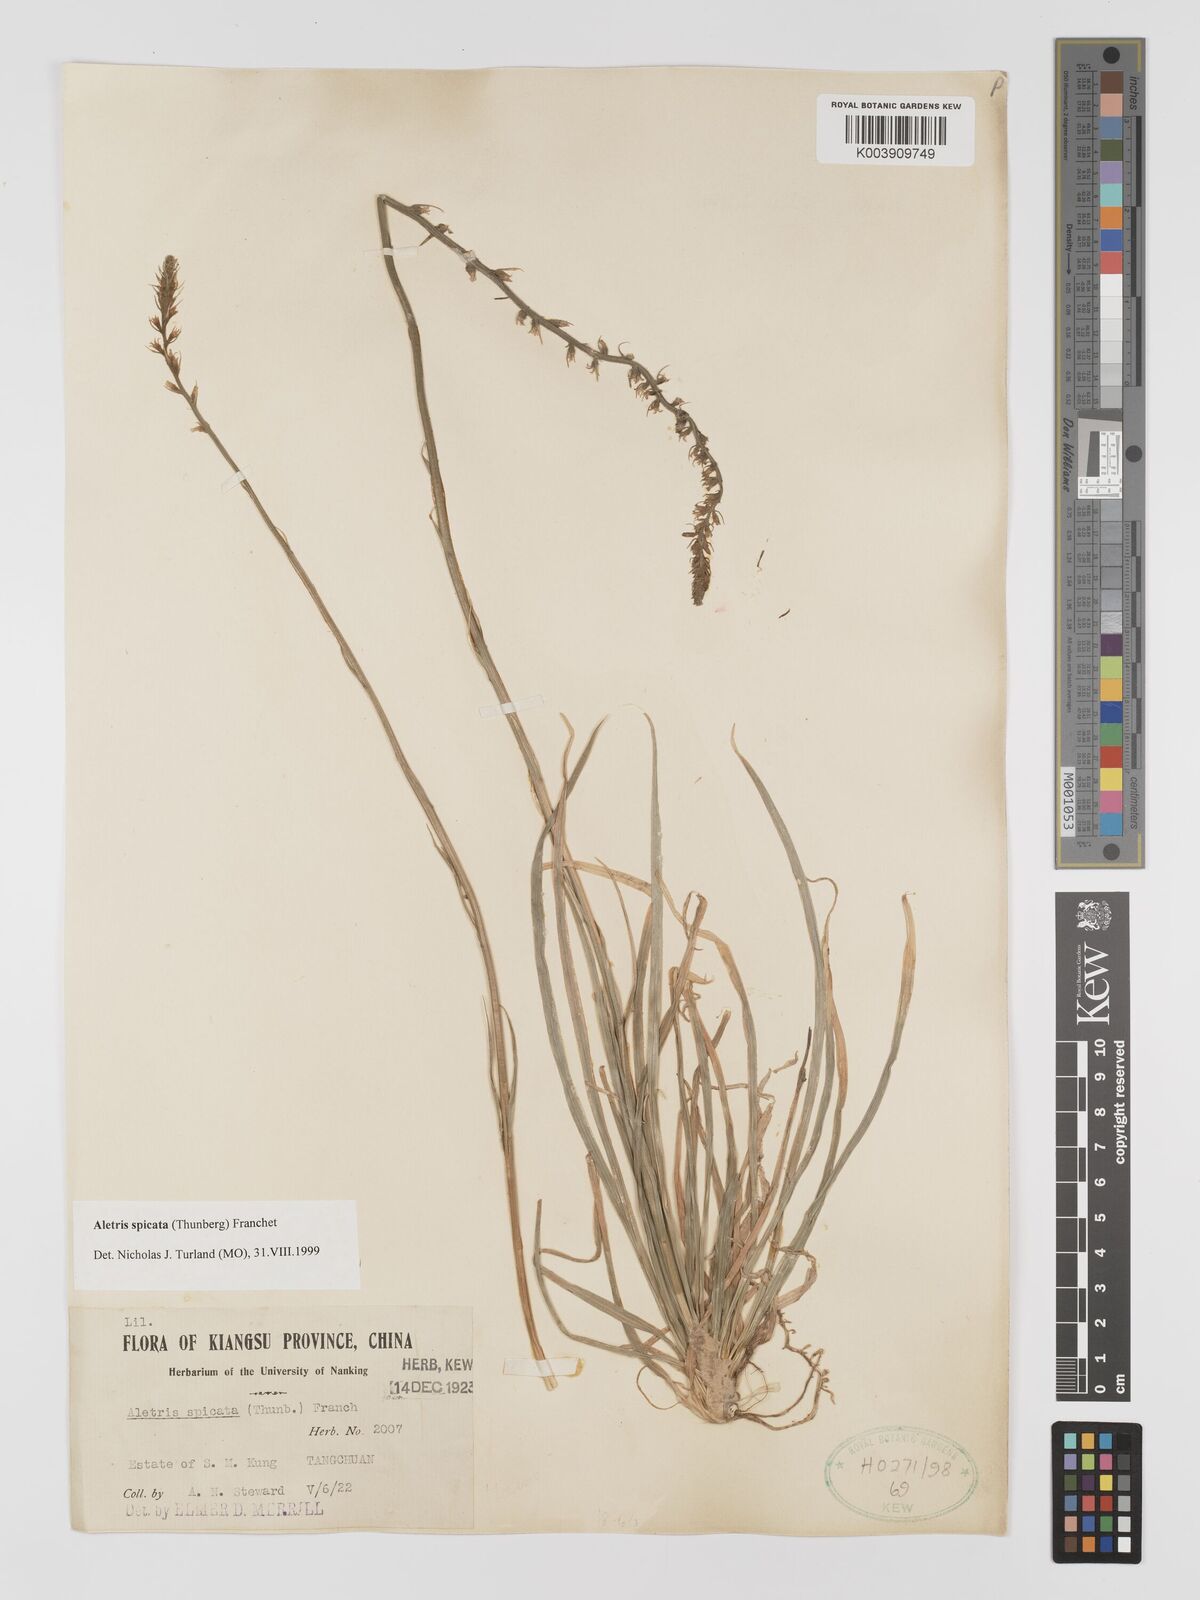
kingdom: Plantae
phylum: Tracheophyta
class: Liliopsida
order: Dioscoreales
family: Nartheciaceae
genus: Aletris
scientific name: Aletris spicata
